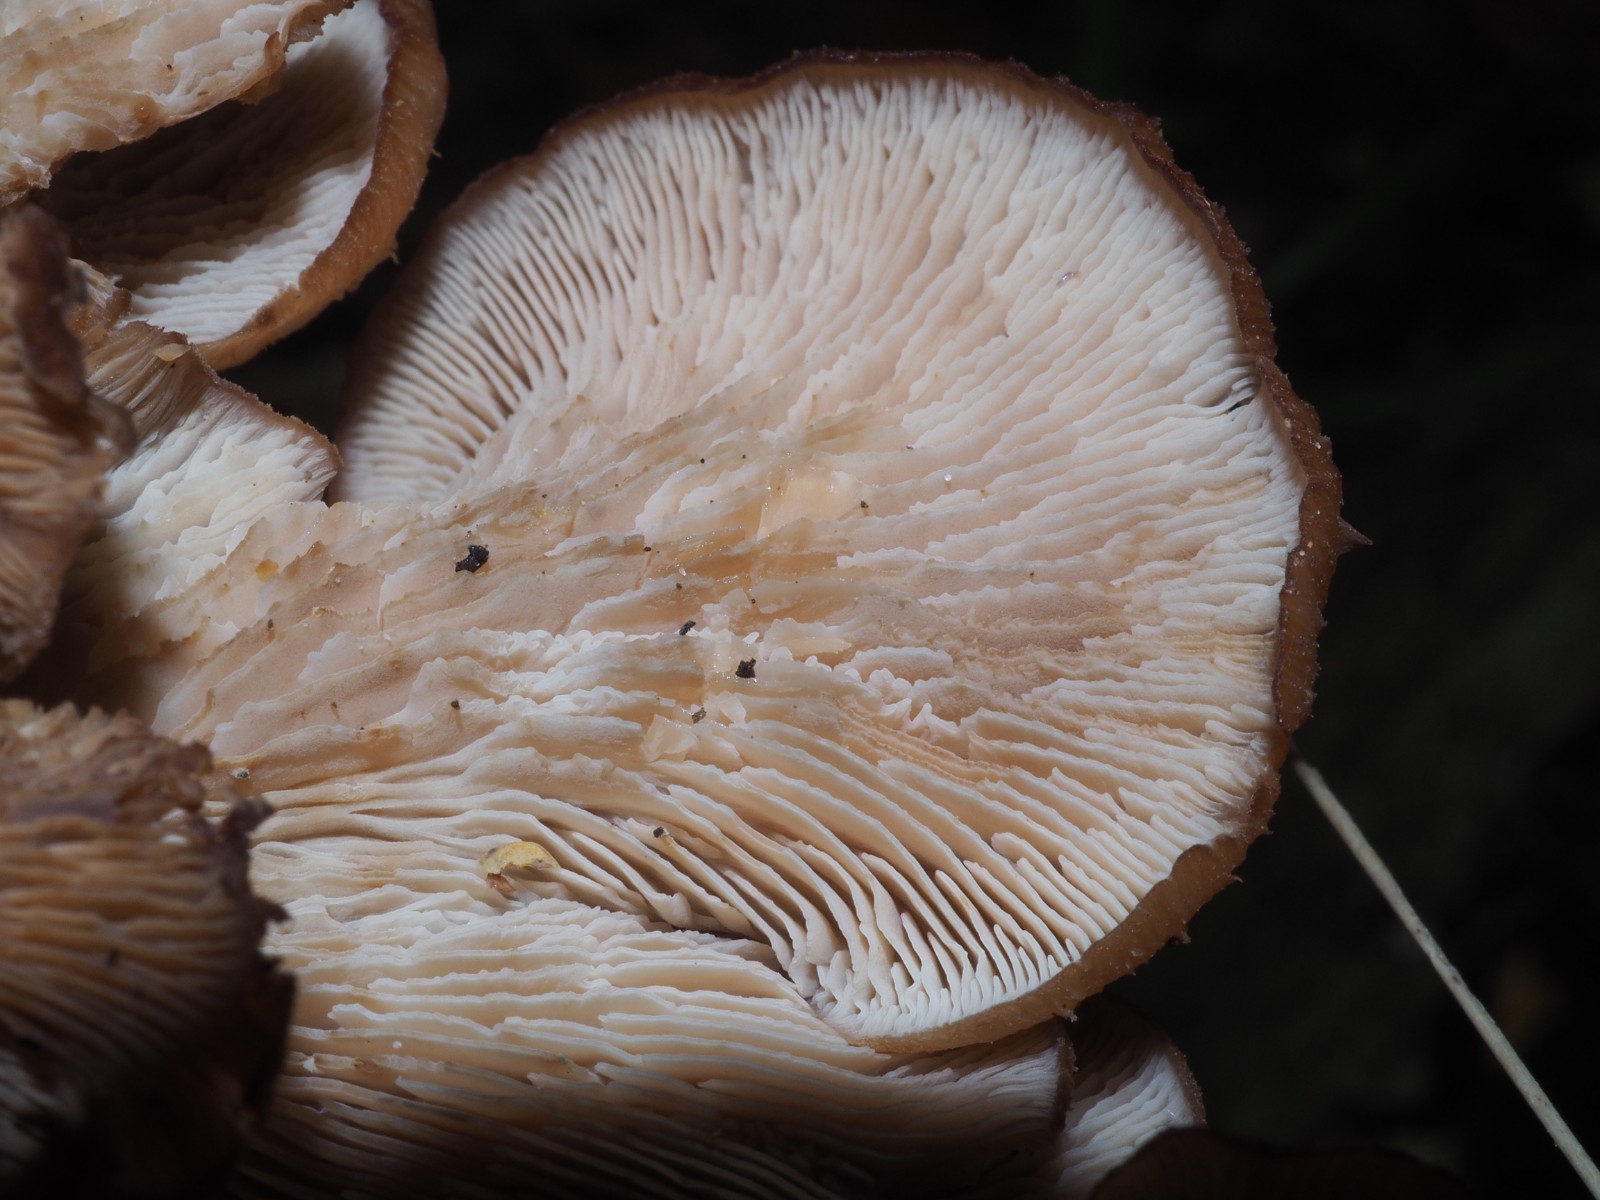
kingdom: Fungi
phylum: Basidiomycota
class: Agaricomycetes
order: Russulales
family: Auriscalpiaceae
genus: Lentinellus
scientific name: Lentinellus cochleatus
